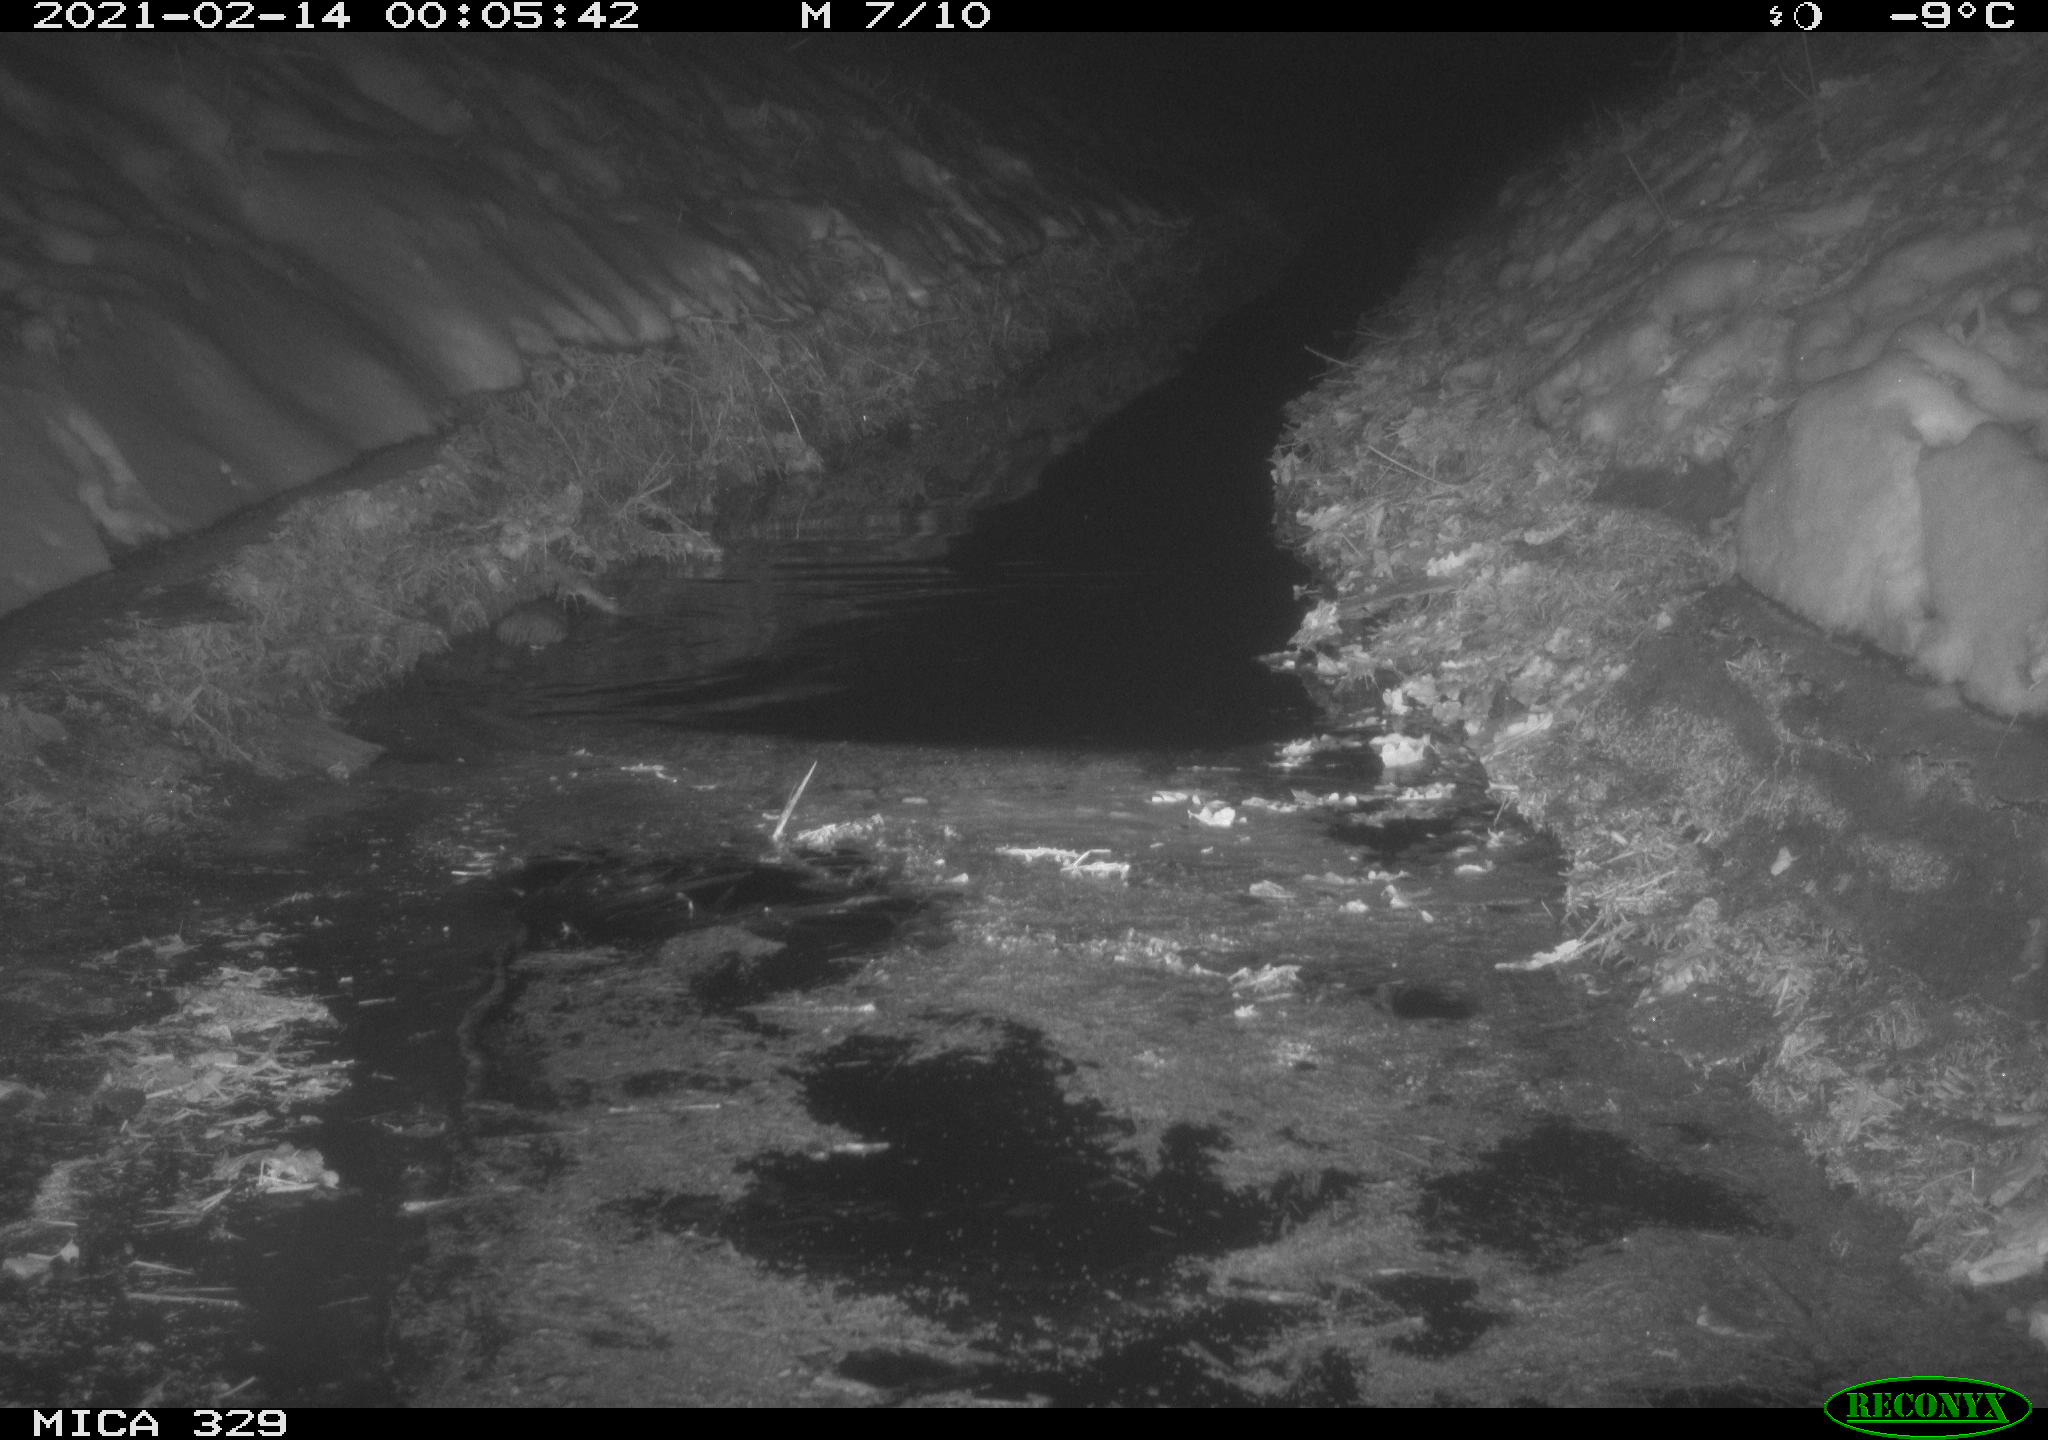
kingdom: Animalia
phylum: Chordata
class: Mammalia
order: Rodentia
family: Cricetidae
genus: Ondatra
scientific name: Ondatra zibethicus
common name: Muskrat
